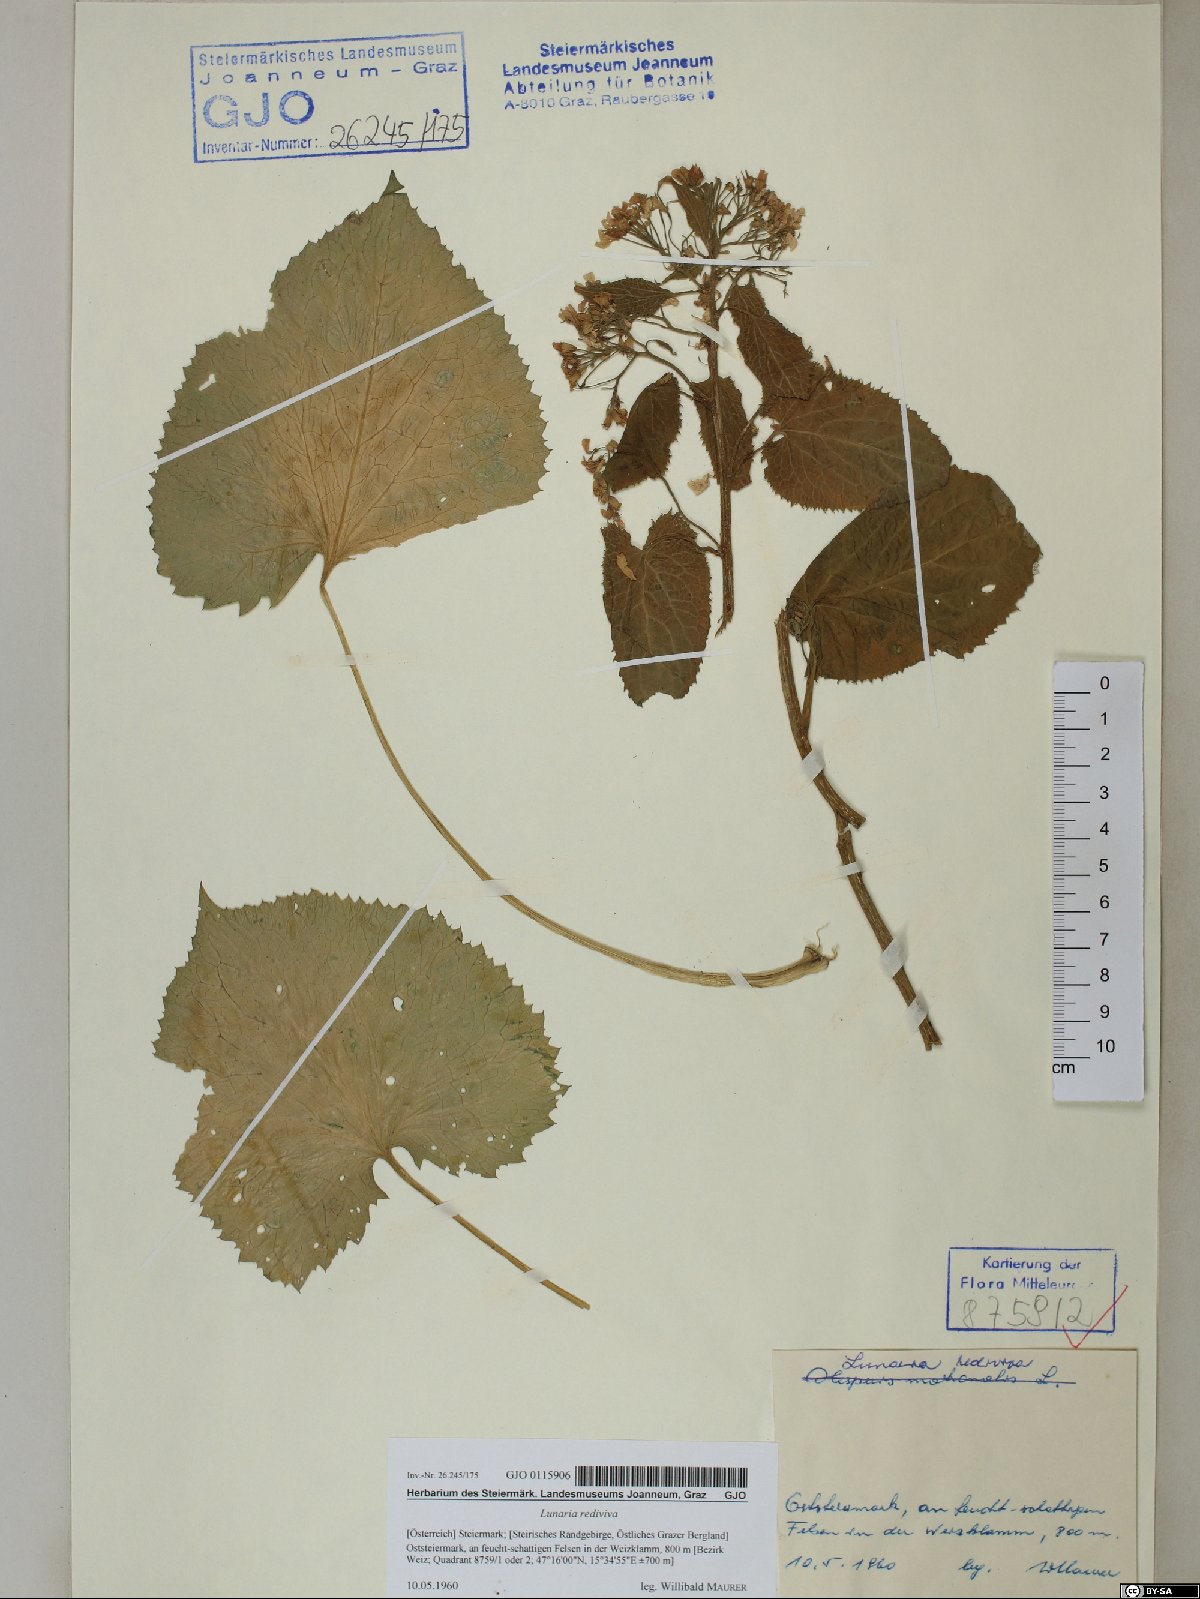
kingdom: Plantae
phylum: Tracheophyta
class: Magnoliopsida
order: Brassicales
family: Brassicaceae
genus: Lunaria
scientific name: Lunaria rediviva
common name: Perennial honesty
